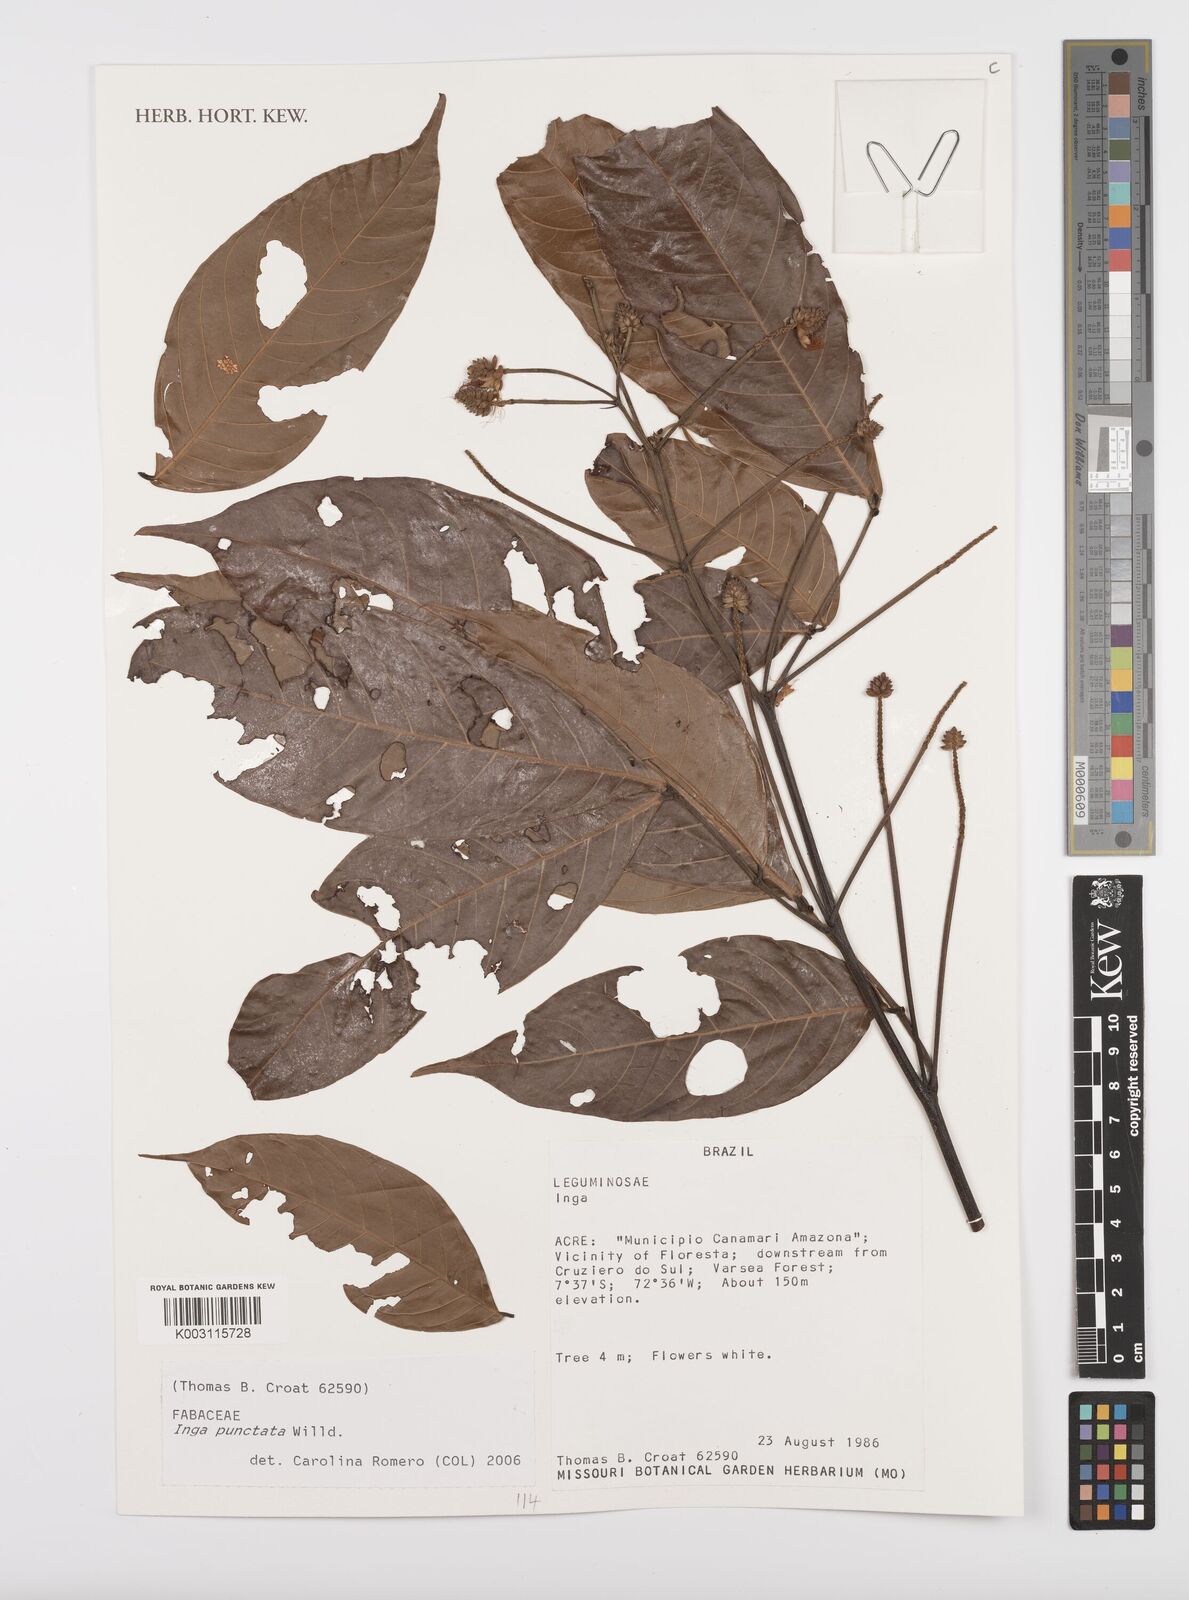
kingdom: Plantae
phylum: Tracheophyta
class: Magnoliopsida
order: Fabales
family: Fabaceae
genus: Inga
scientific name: Inga punctata
